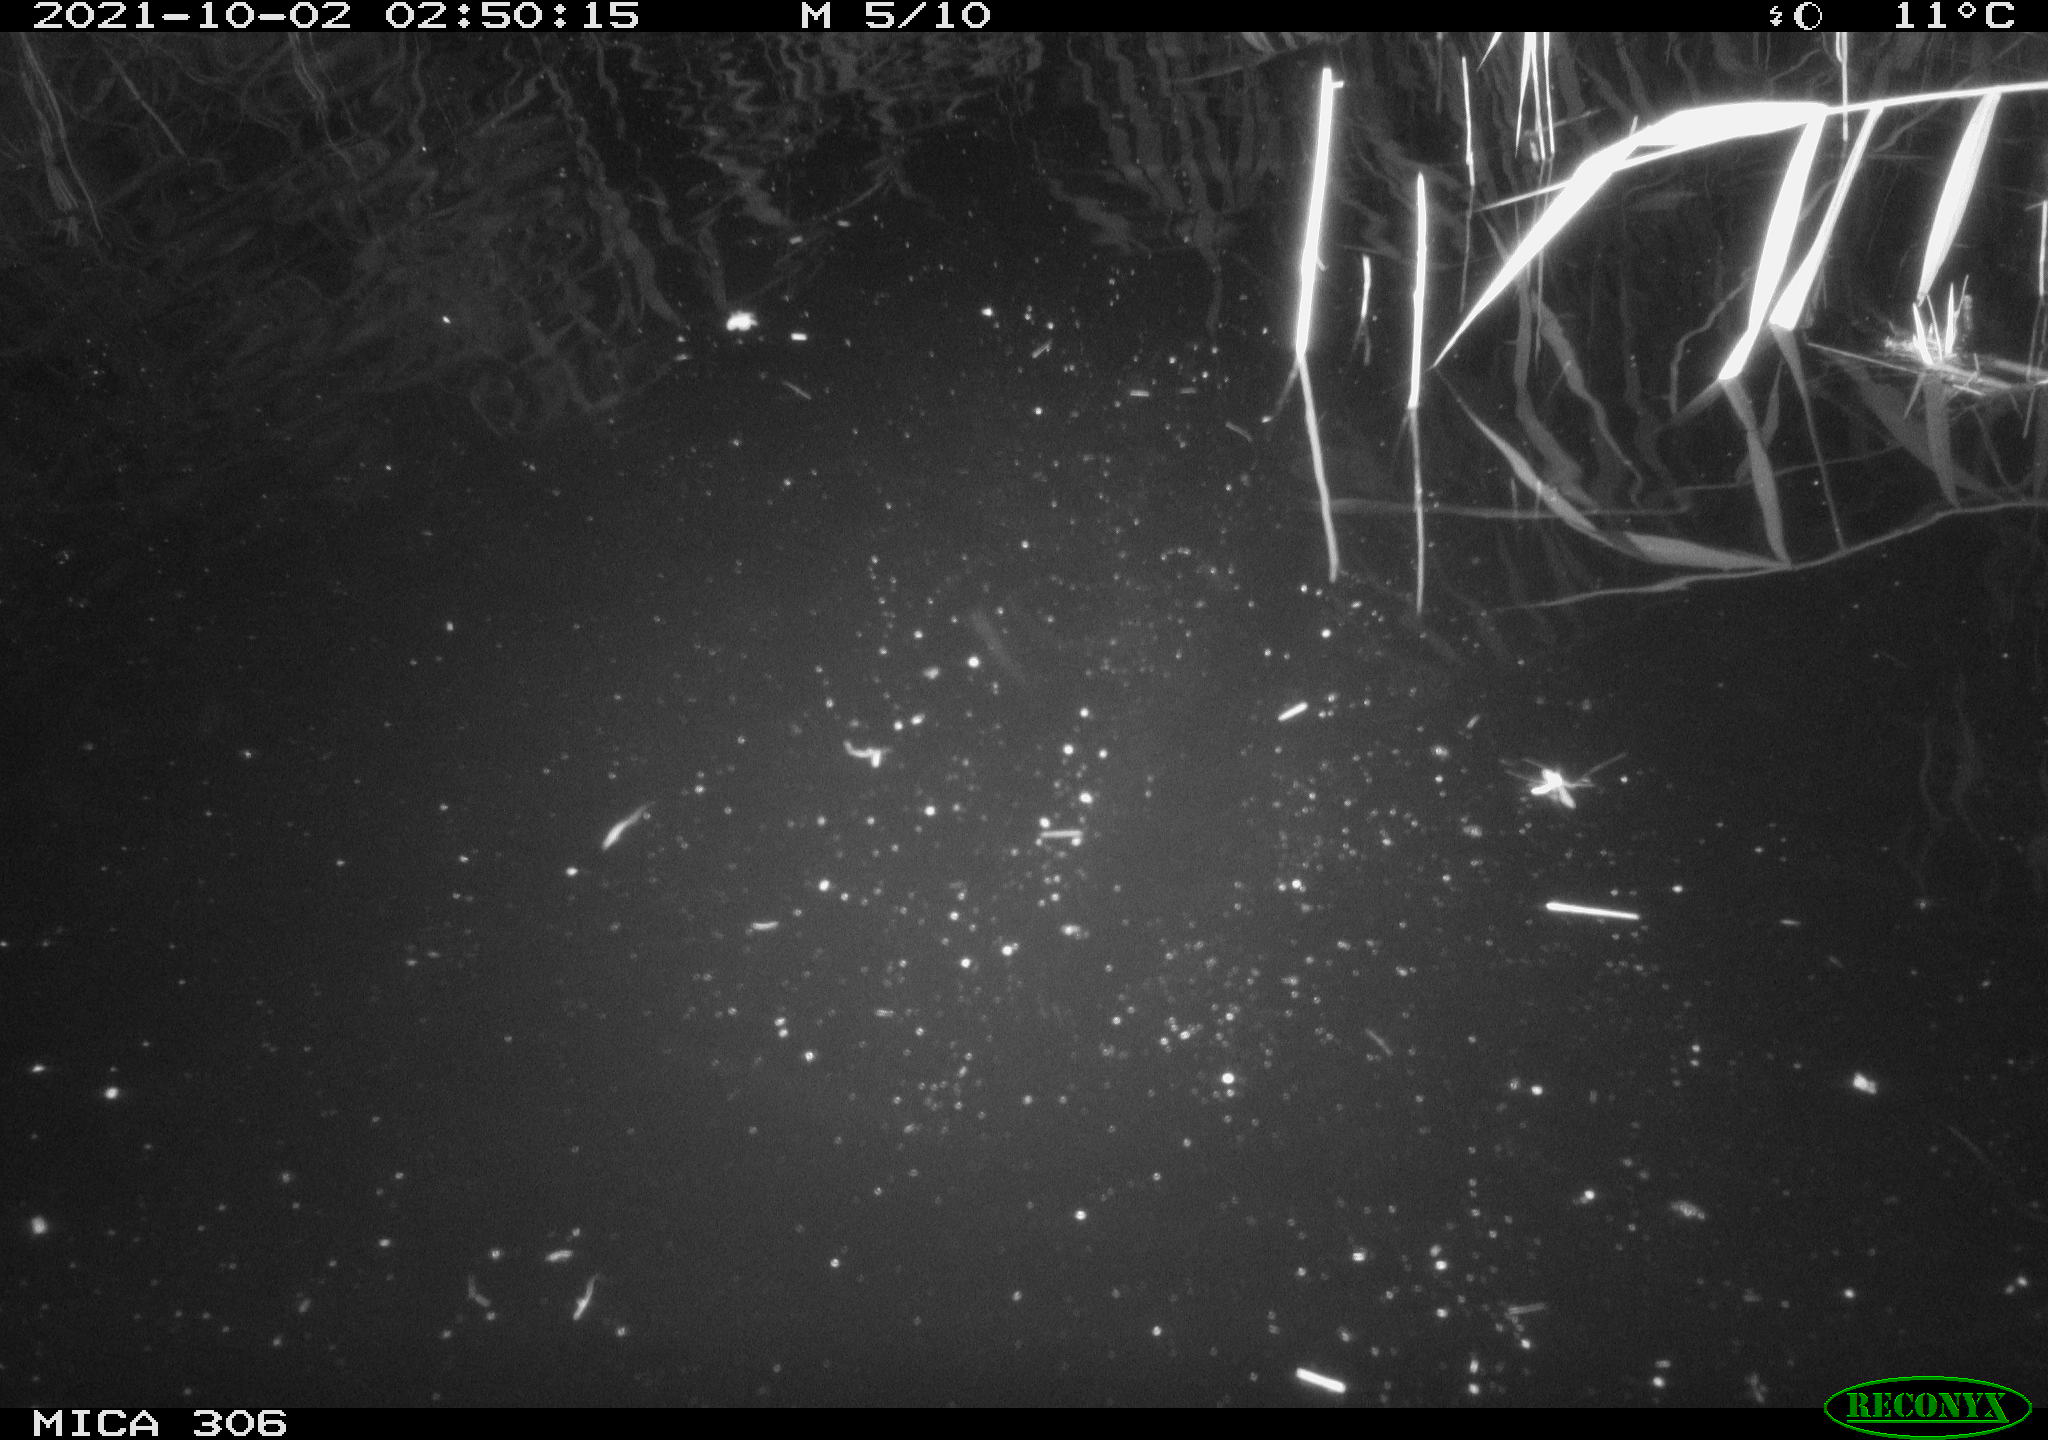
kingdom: Animalia
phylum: Chordata
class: Mammalia
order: Rodentia
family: Cricetidae
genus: Ondatra
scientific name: Ondatra zibethicus
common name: Muskrat
